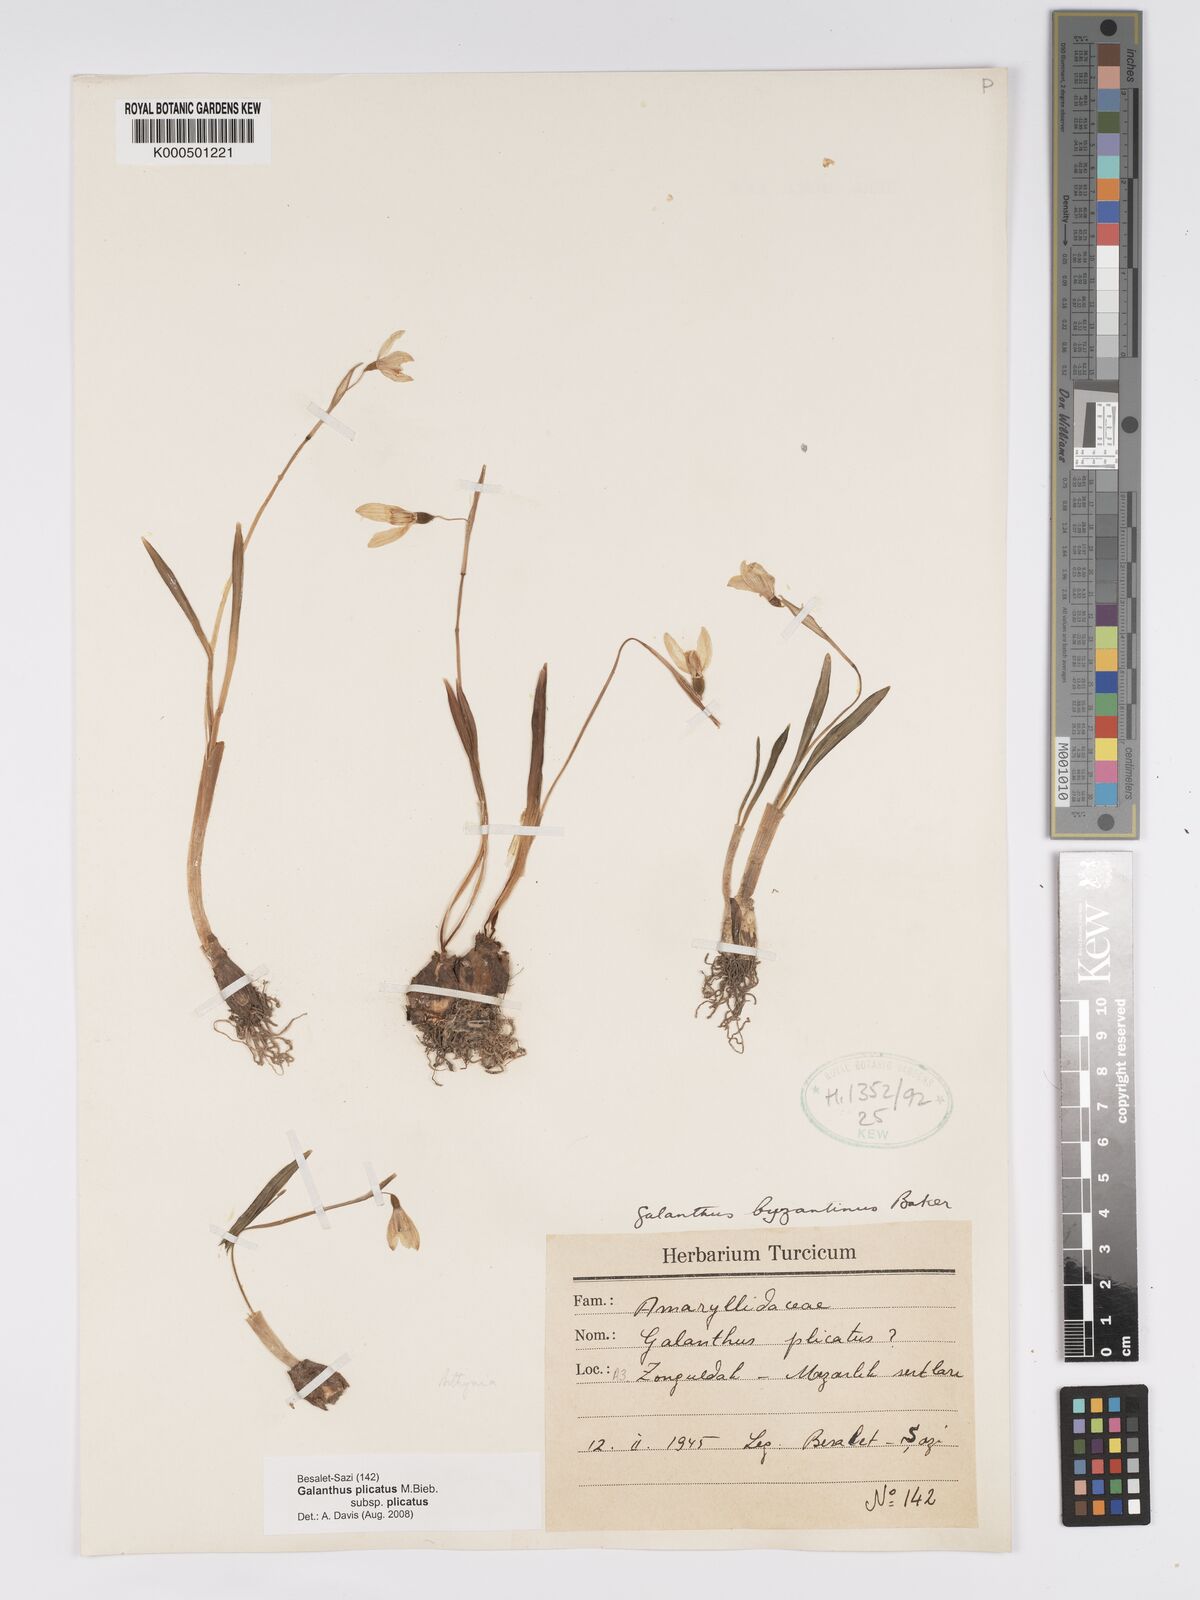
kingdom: Plantae
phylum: Tracheophyta
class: Liliopsida
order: Asparagales
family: Amaryllidaceae
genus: Galanthus
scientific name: Galanthus plicatus
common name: Pleated snowdrop
